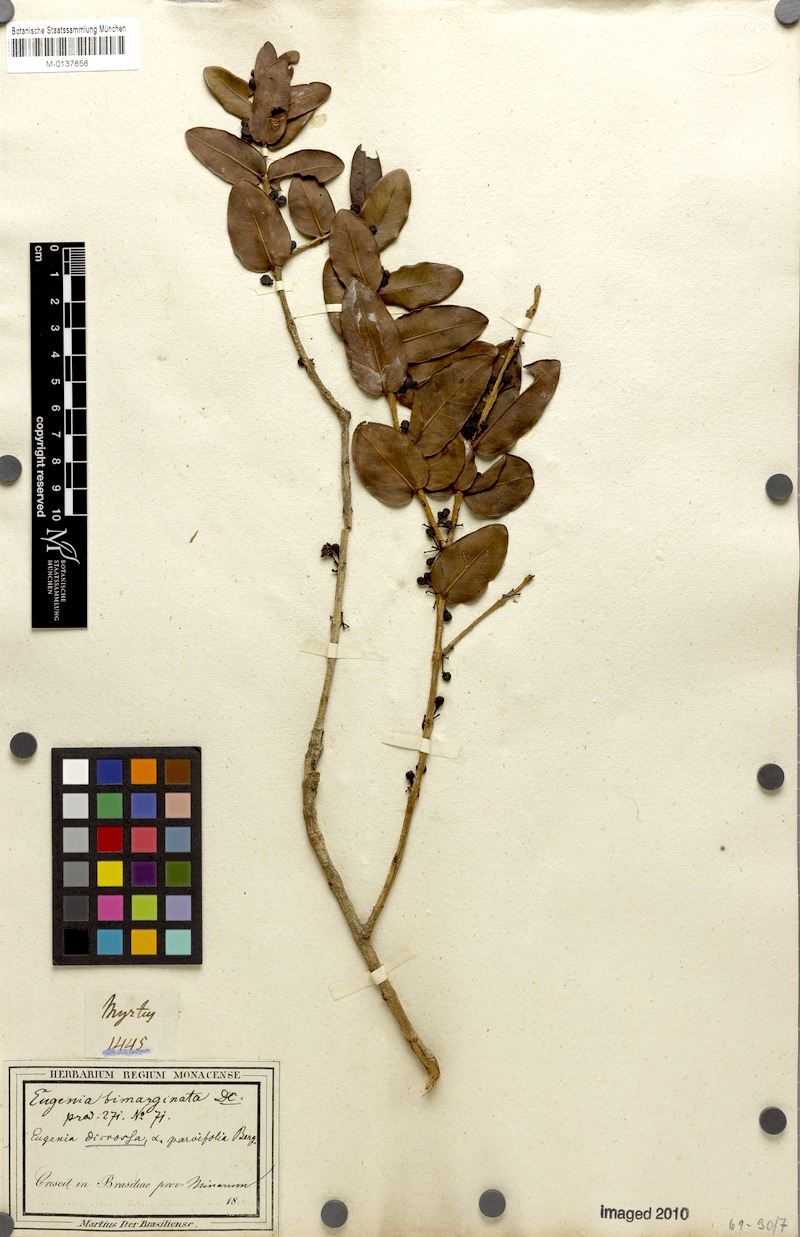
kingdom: Plantae
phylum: Tracheophyta
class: Magnoliopsida
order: Myrtales
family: Myrtaceae
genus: Eugenia
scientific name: Eugenia bimarginata
